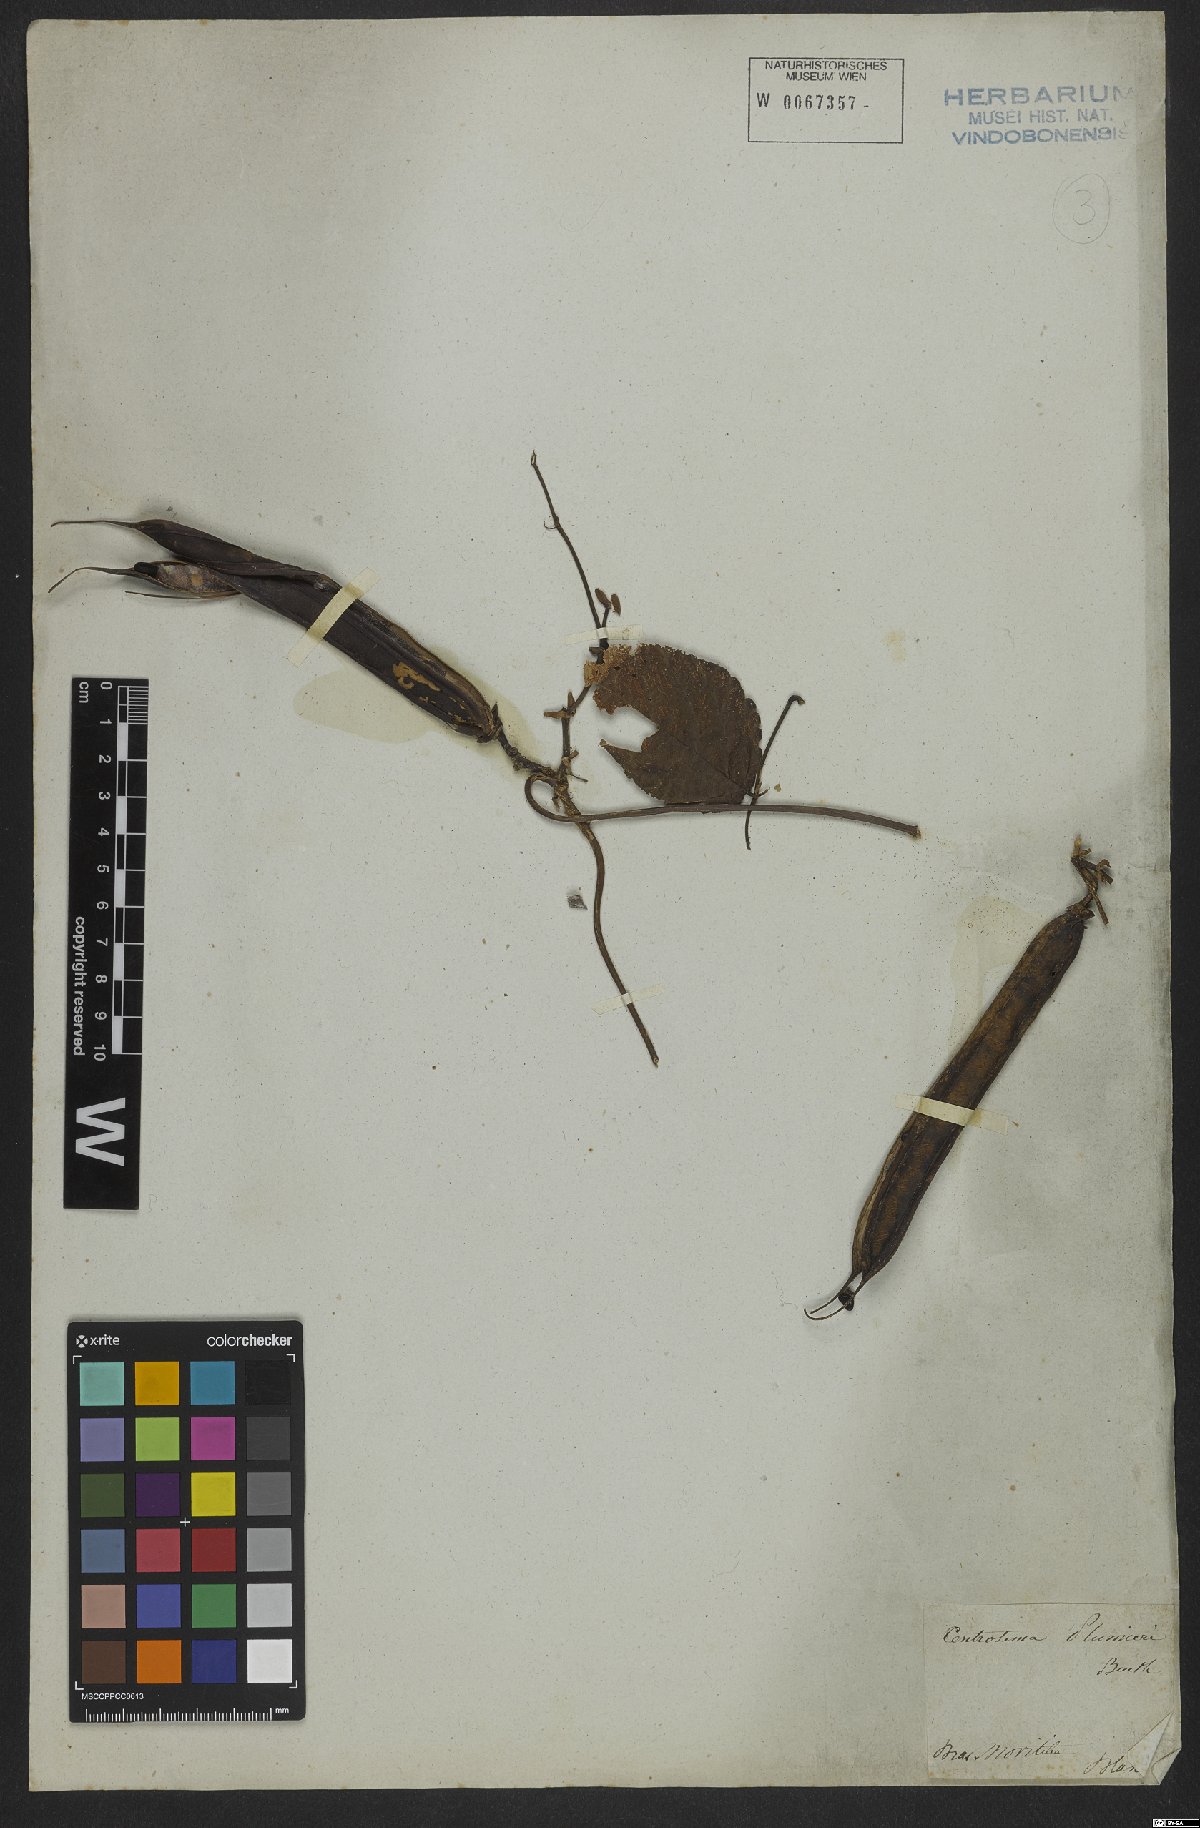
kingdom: Plantae
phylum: Tracheophyta
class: Magnoliopsida
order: Fabales
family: Fabaceae
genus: Centrosema
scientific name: Centrosema plumieri
